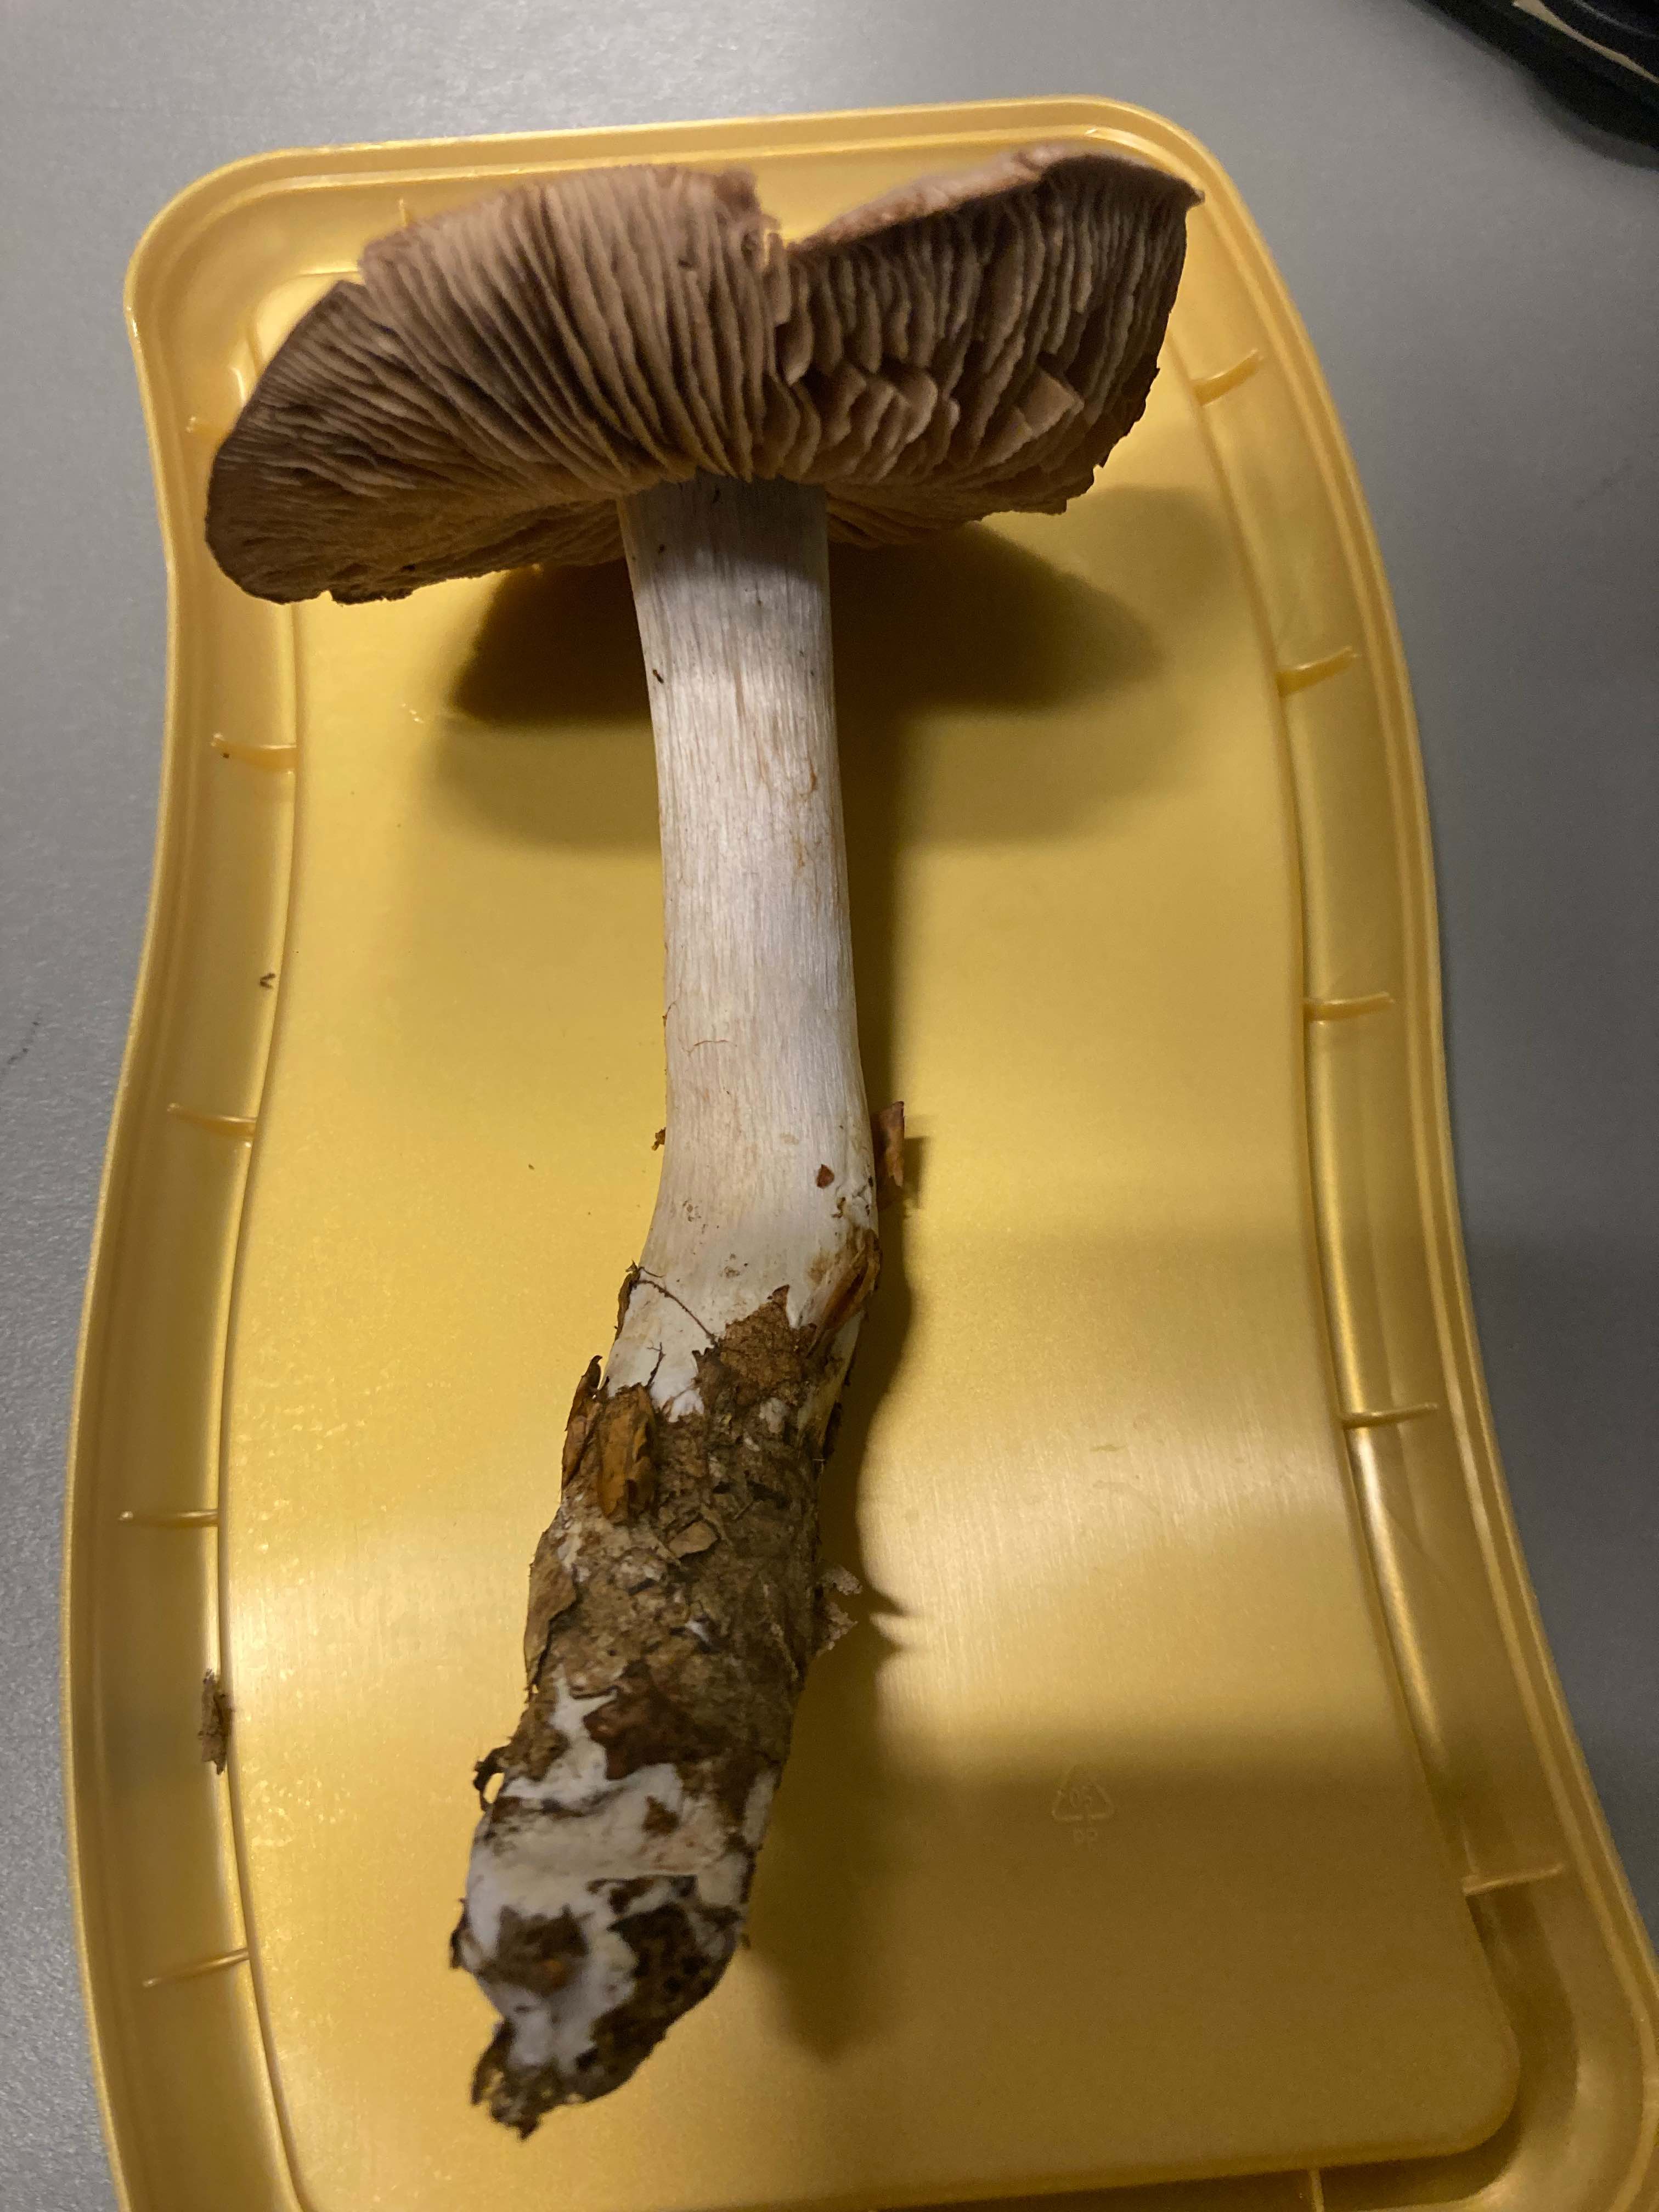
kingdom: Fungi
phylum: Basidiomycota
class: Agaricomycetes
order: Agaricales
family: Cortinariaceae
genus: Cortinarius
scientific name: Cortinarius alboviolaceus
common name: lysviolet slørhat
